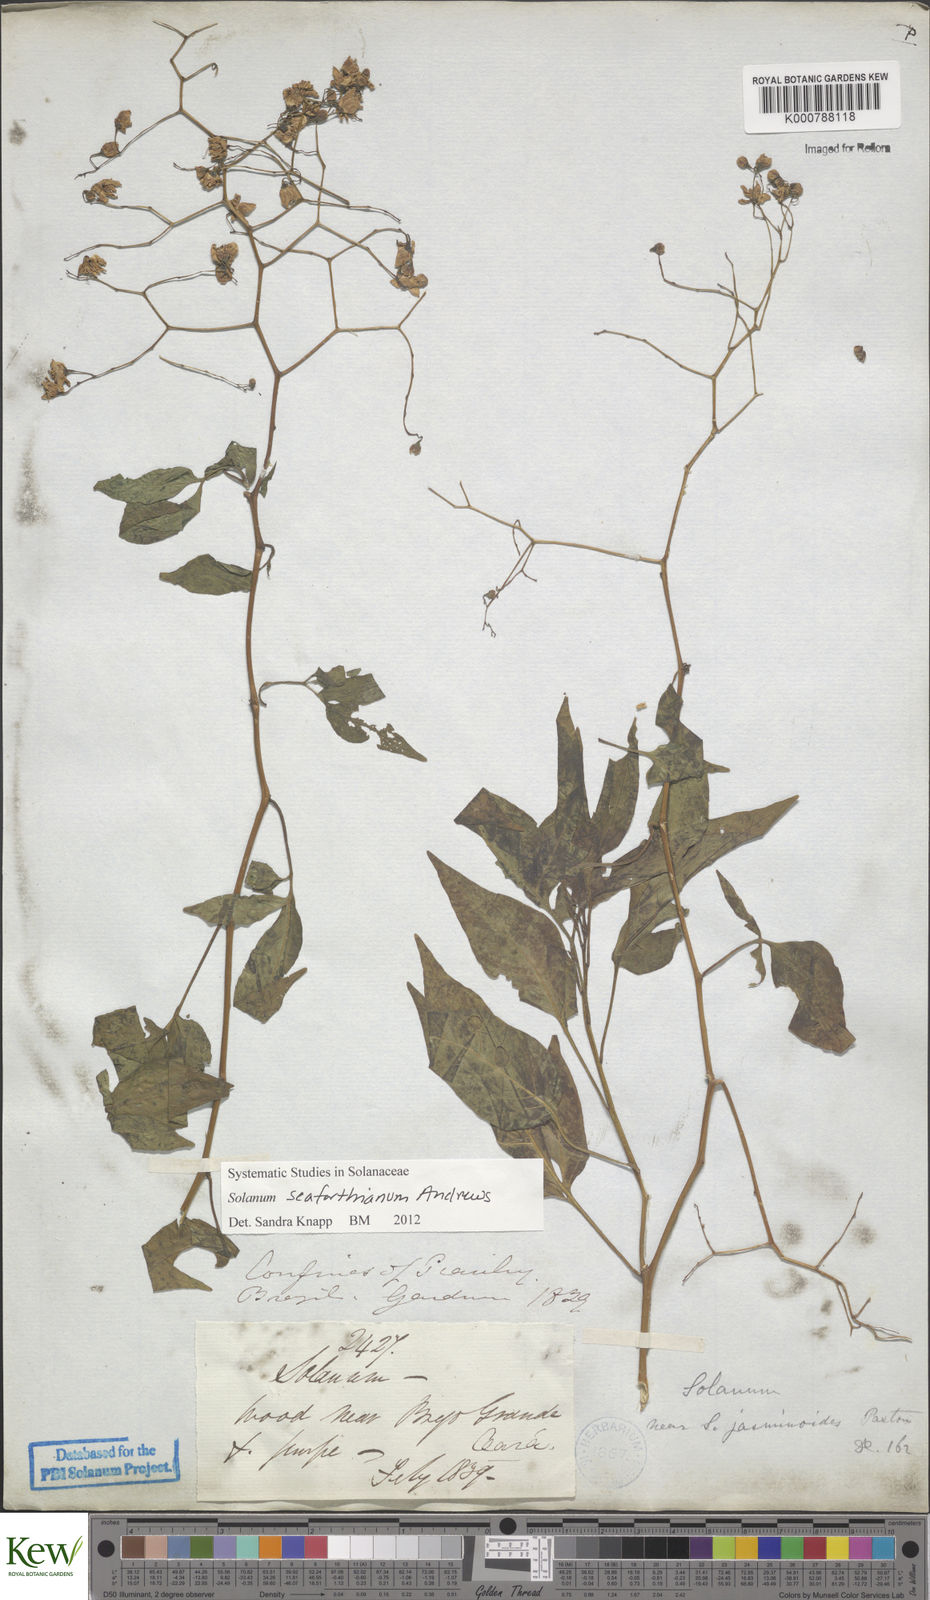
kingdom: Plantae
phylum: Tracheophyta
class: Magnoliopsida
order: Solanales
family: Solanaceae
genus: Solanum
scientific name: Solanum seaforthianum
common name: Brazilian nightshade
